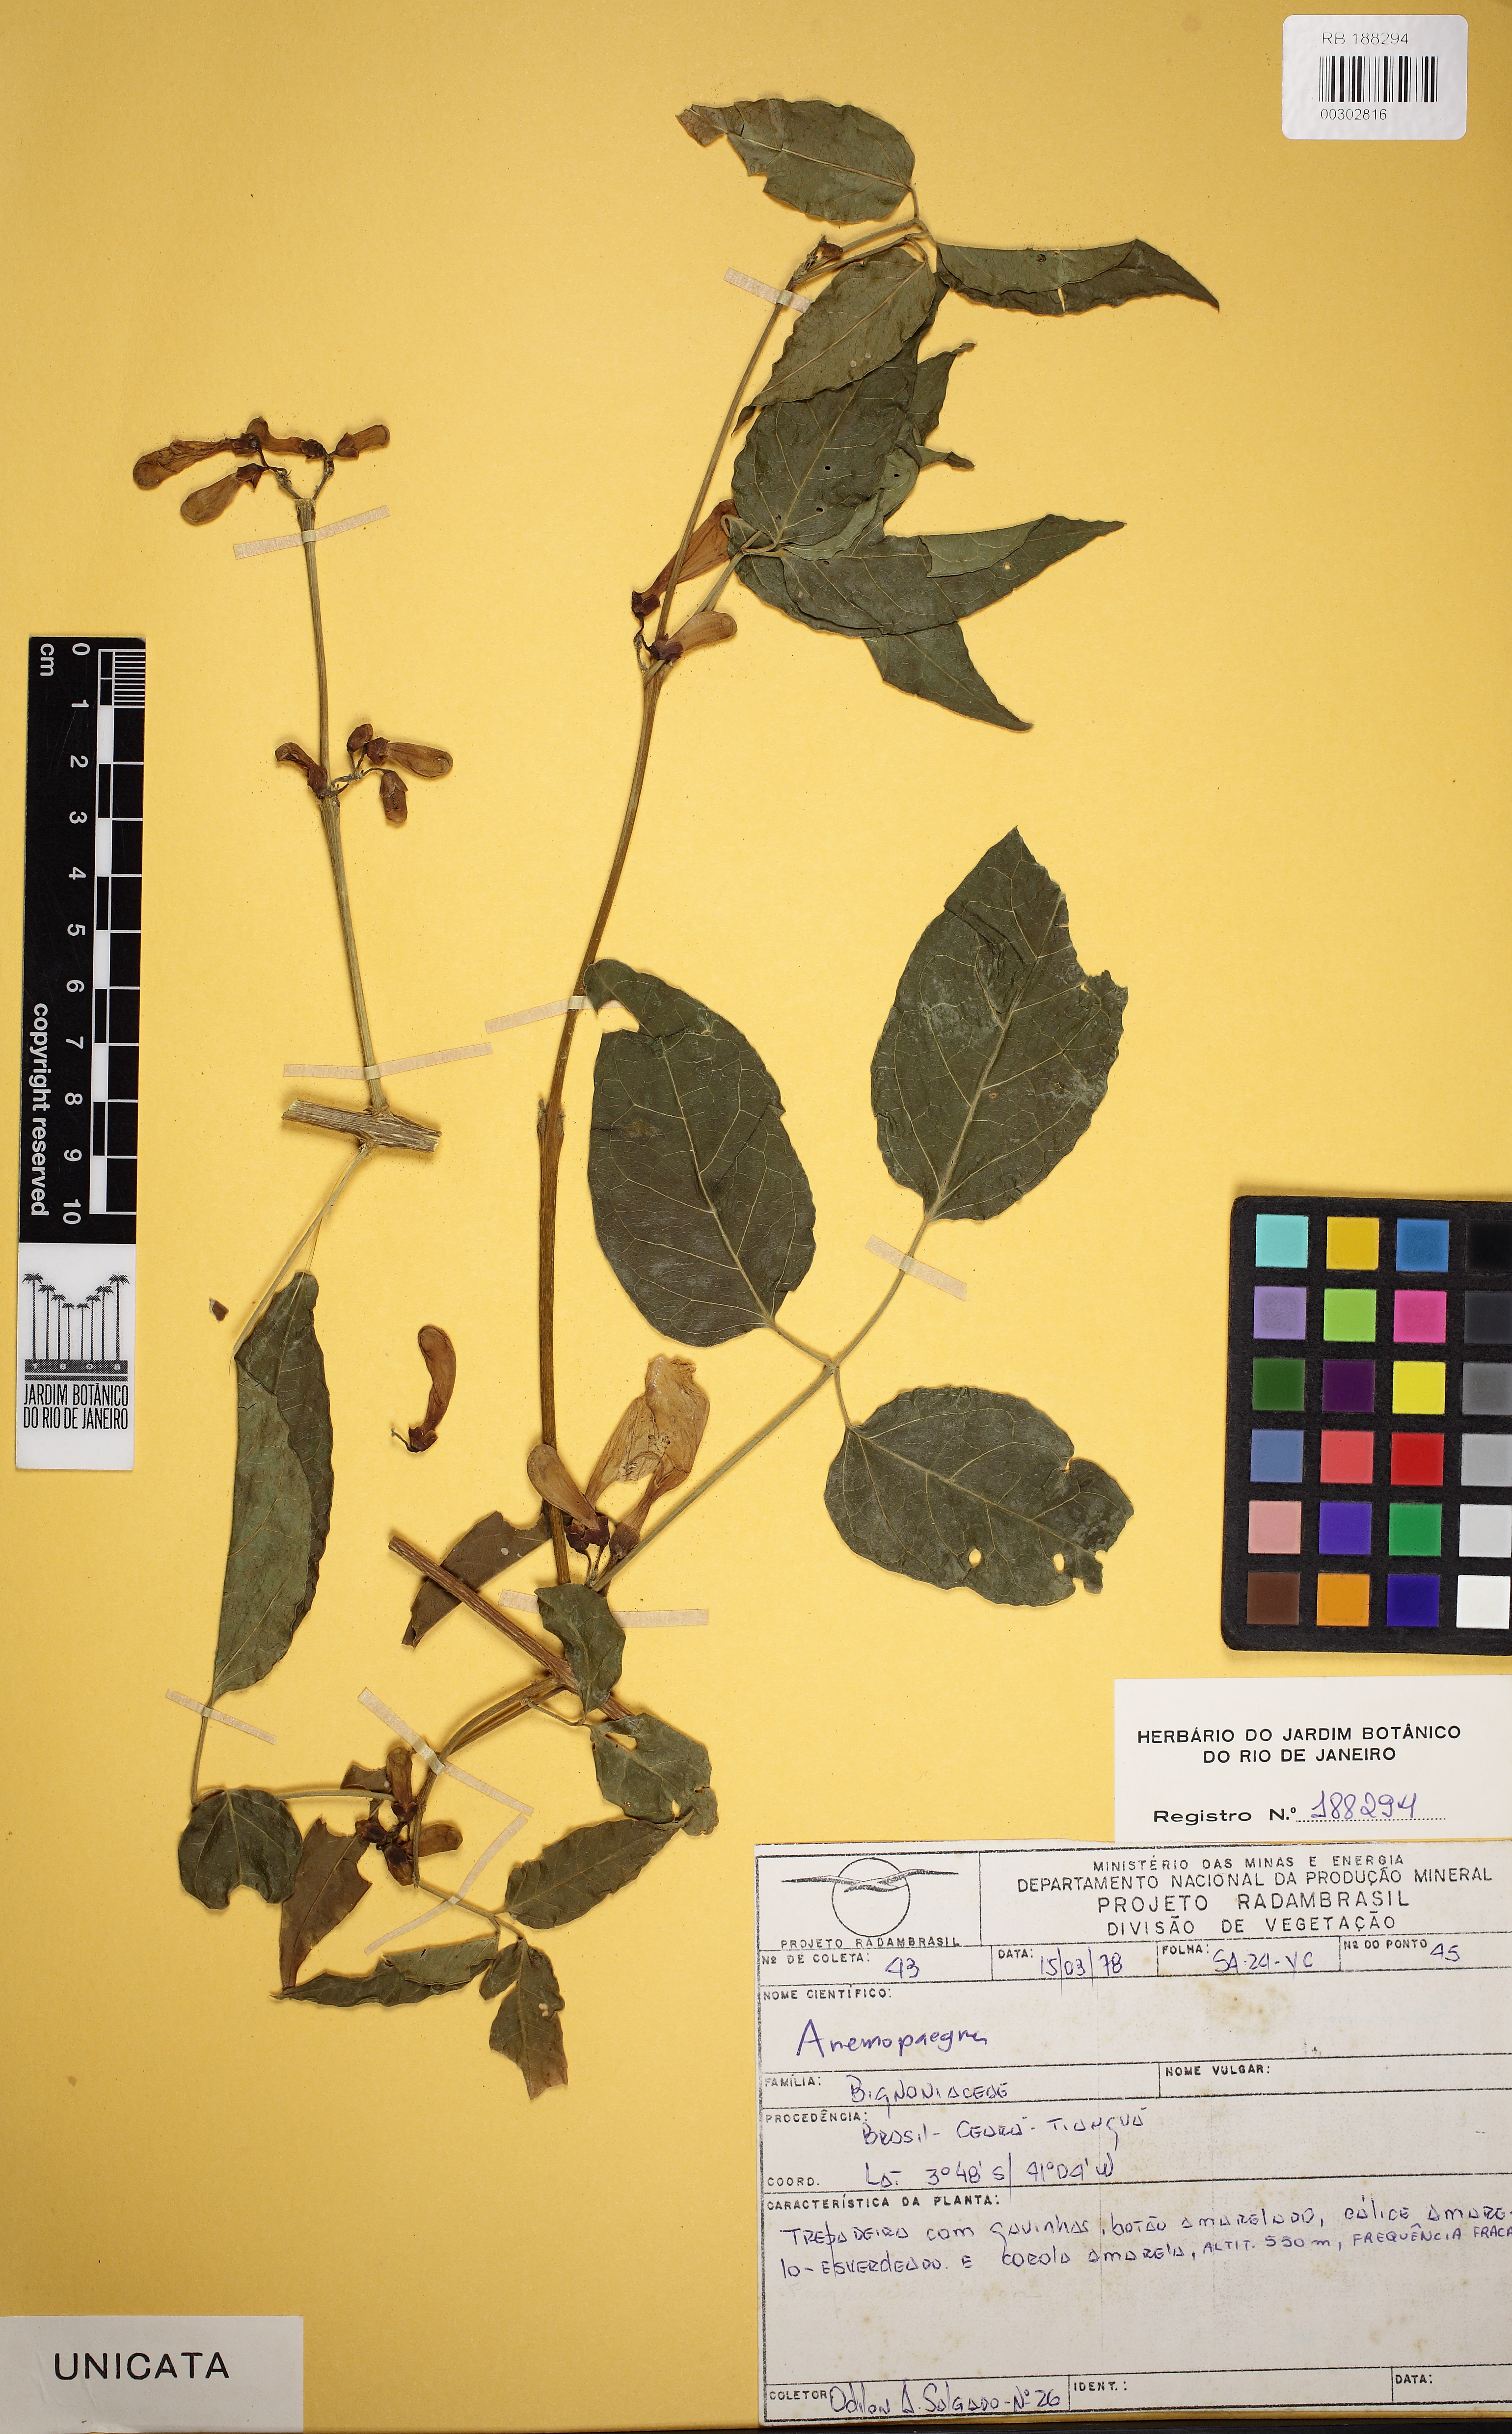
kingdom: Plantae
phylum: Tracheophyta
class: Magnoliopsida
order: Lamiales
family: Bignoniaceae
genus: Anemopaegma
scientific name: Anemopaegma
